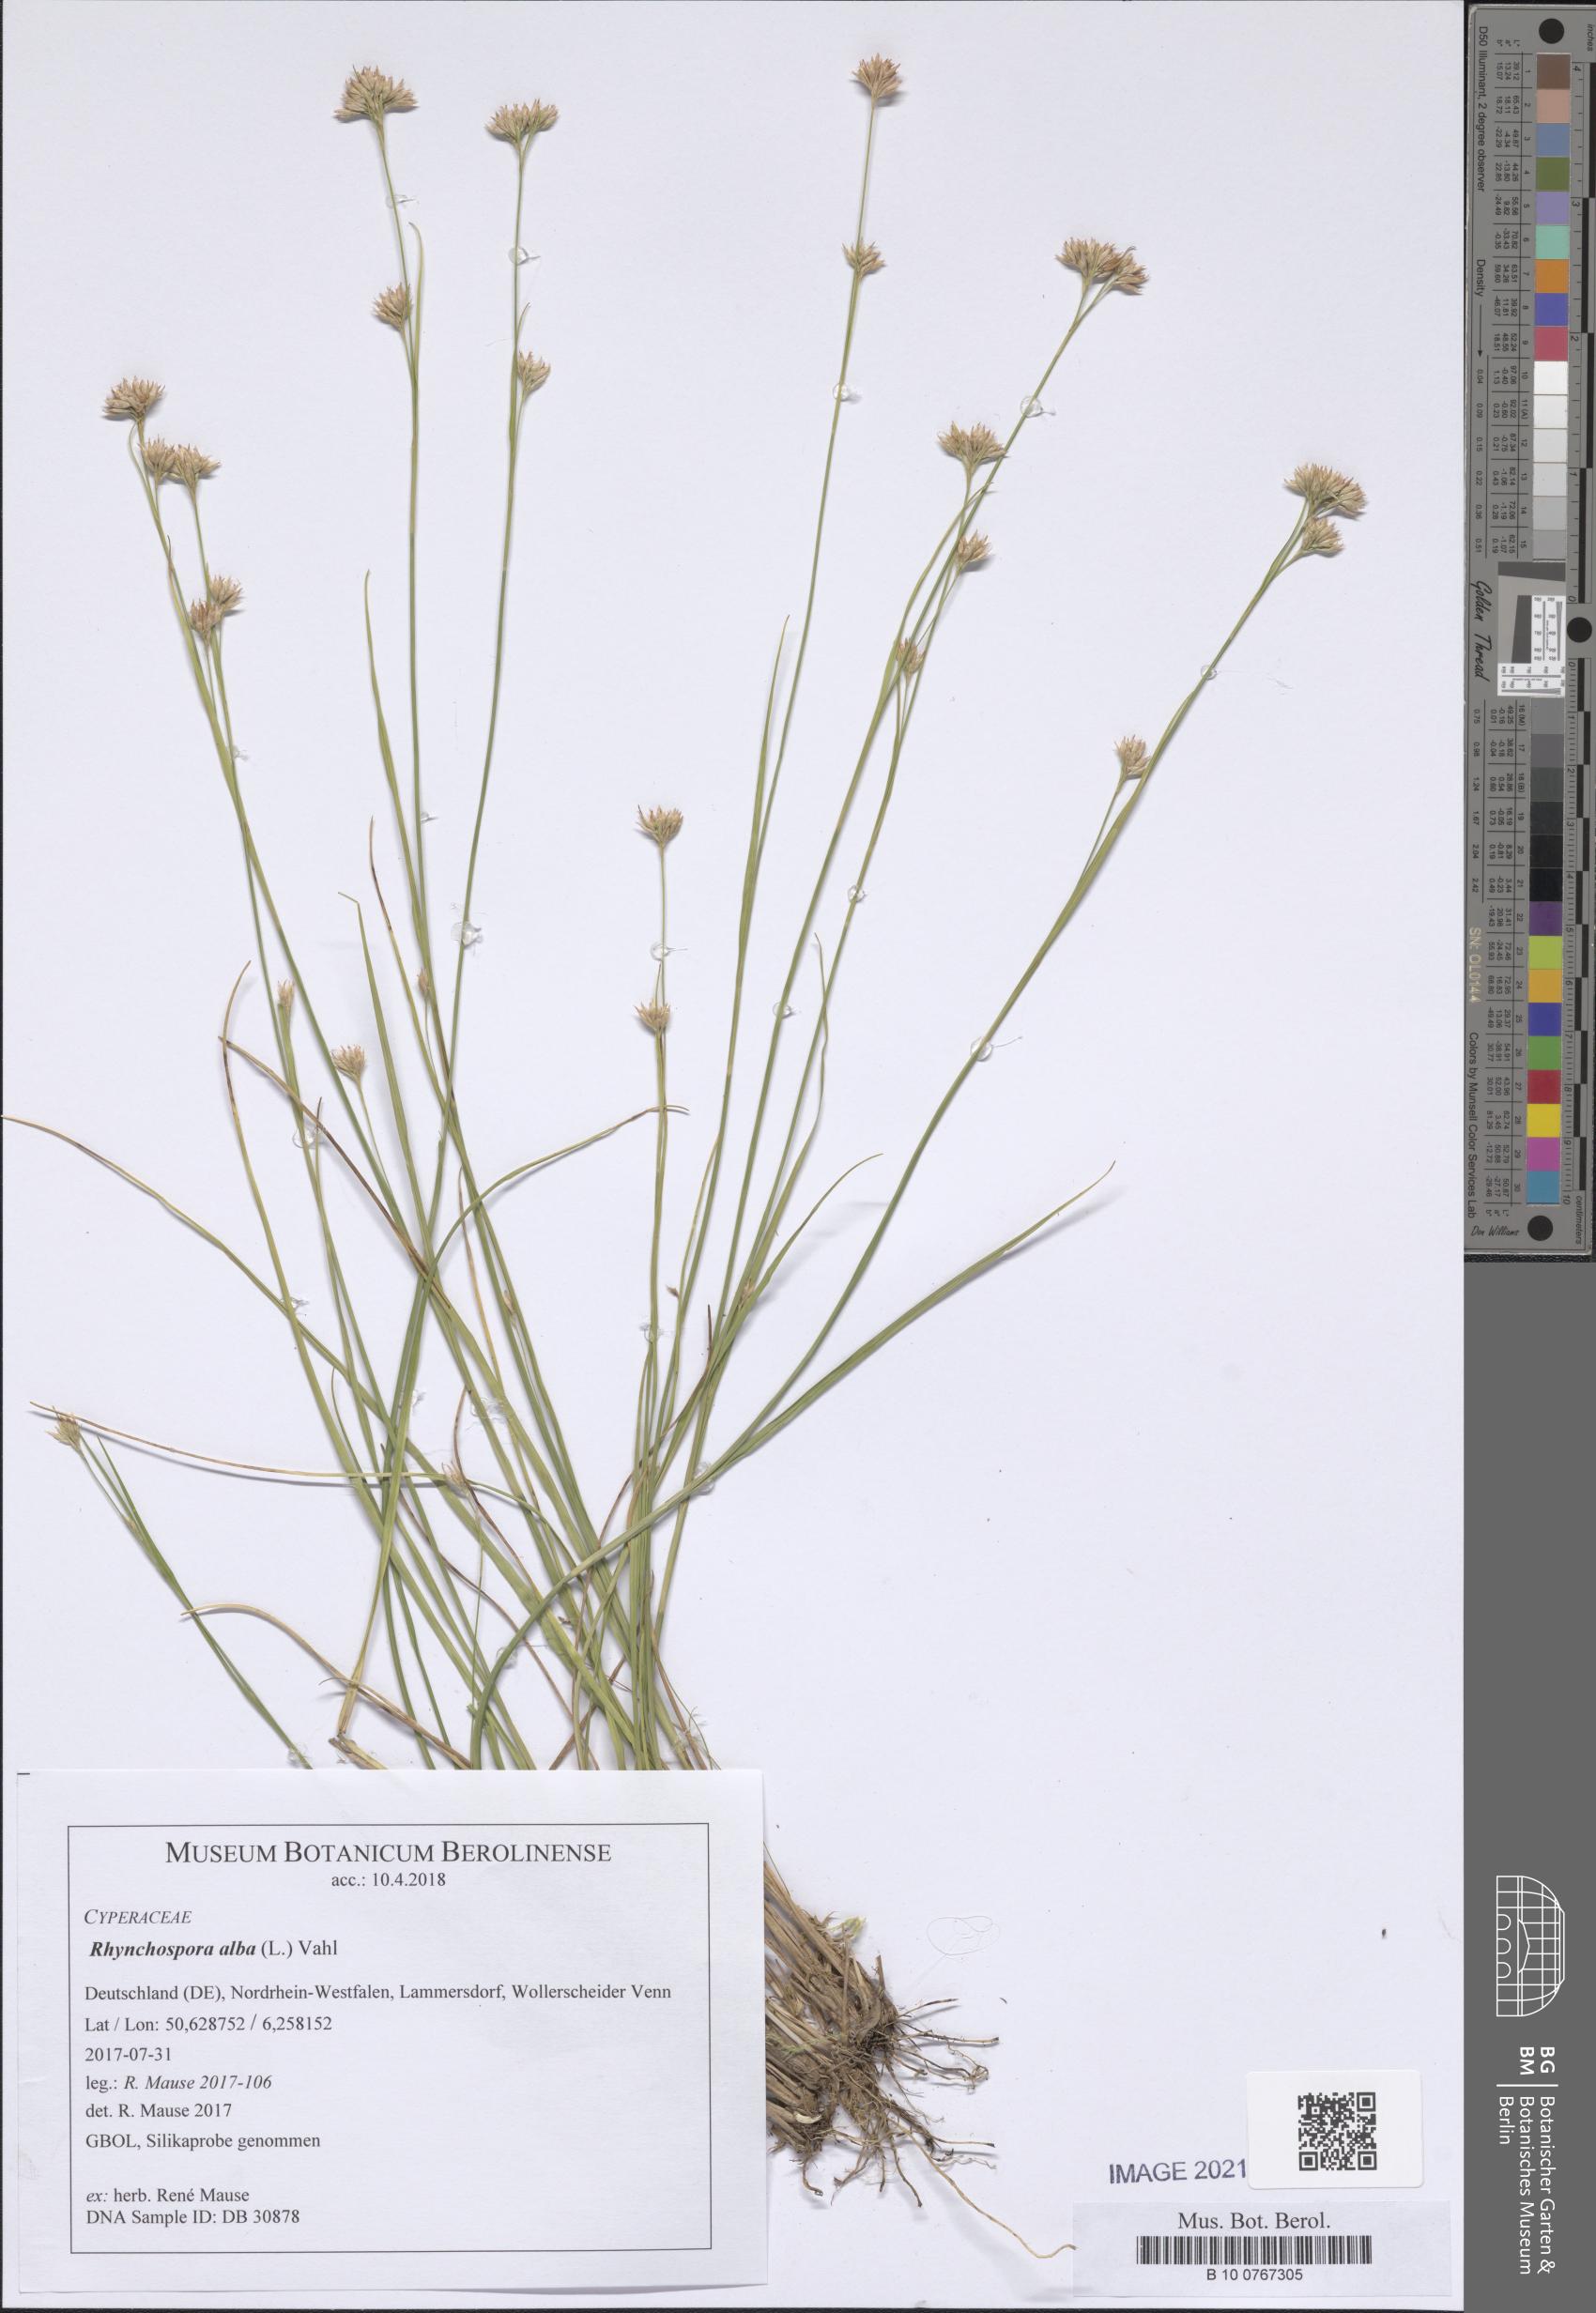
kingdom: Plantae
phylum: Tracheophyta
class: Liliopsida
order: Poales
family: Cyperaceae
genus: Rhynchospora
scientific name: Rhynchospora alba
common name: White beak-sedge
